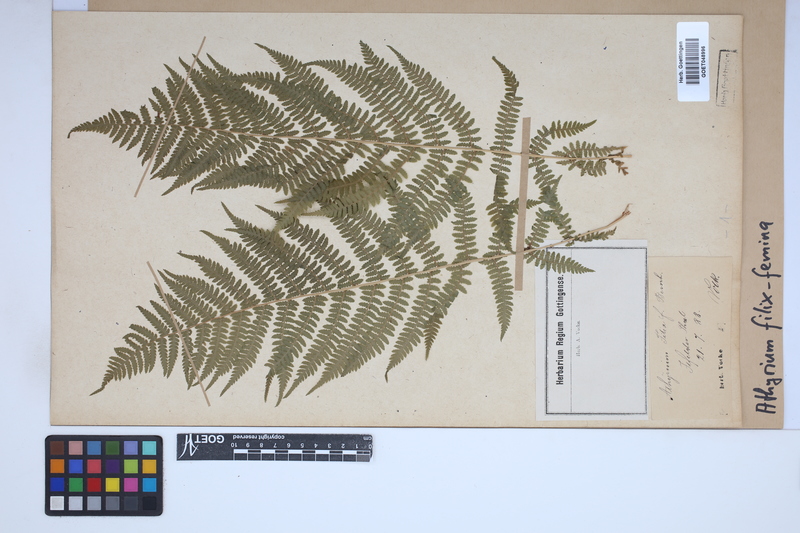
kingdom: Plantae
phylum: Tracheophyta
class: Polypodiopsida
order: Polypodiales
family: Athyriaceae
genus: Athyrium
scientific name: Athyrium filix-femina
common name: Lady fern
